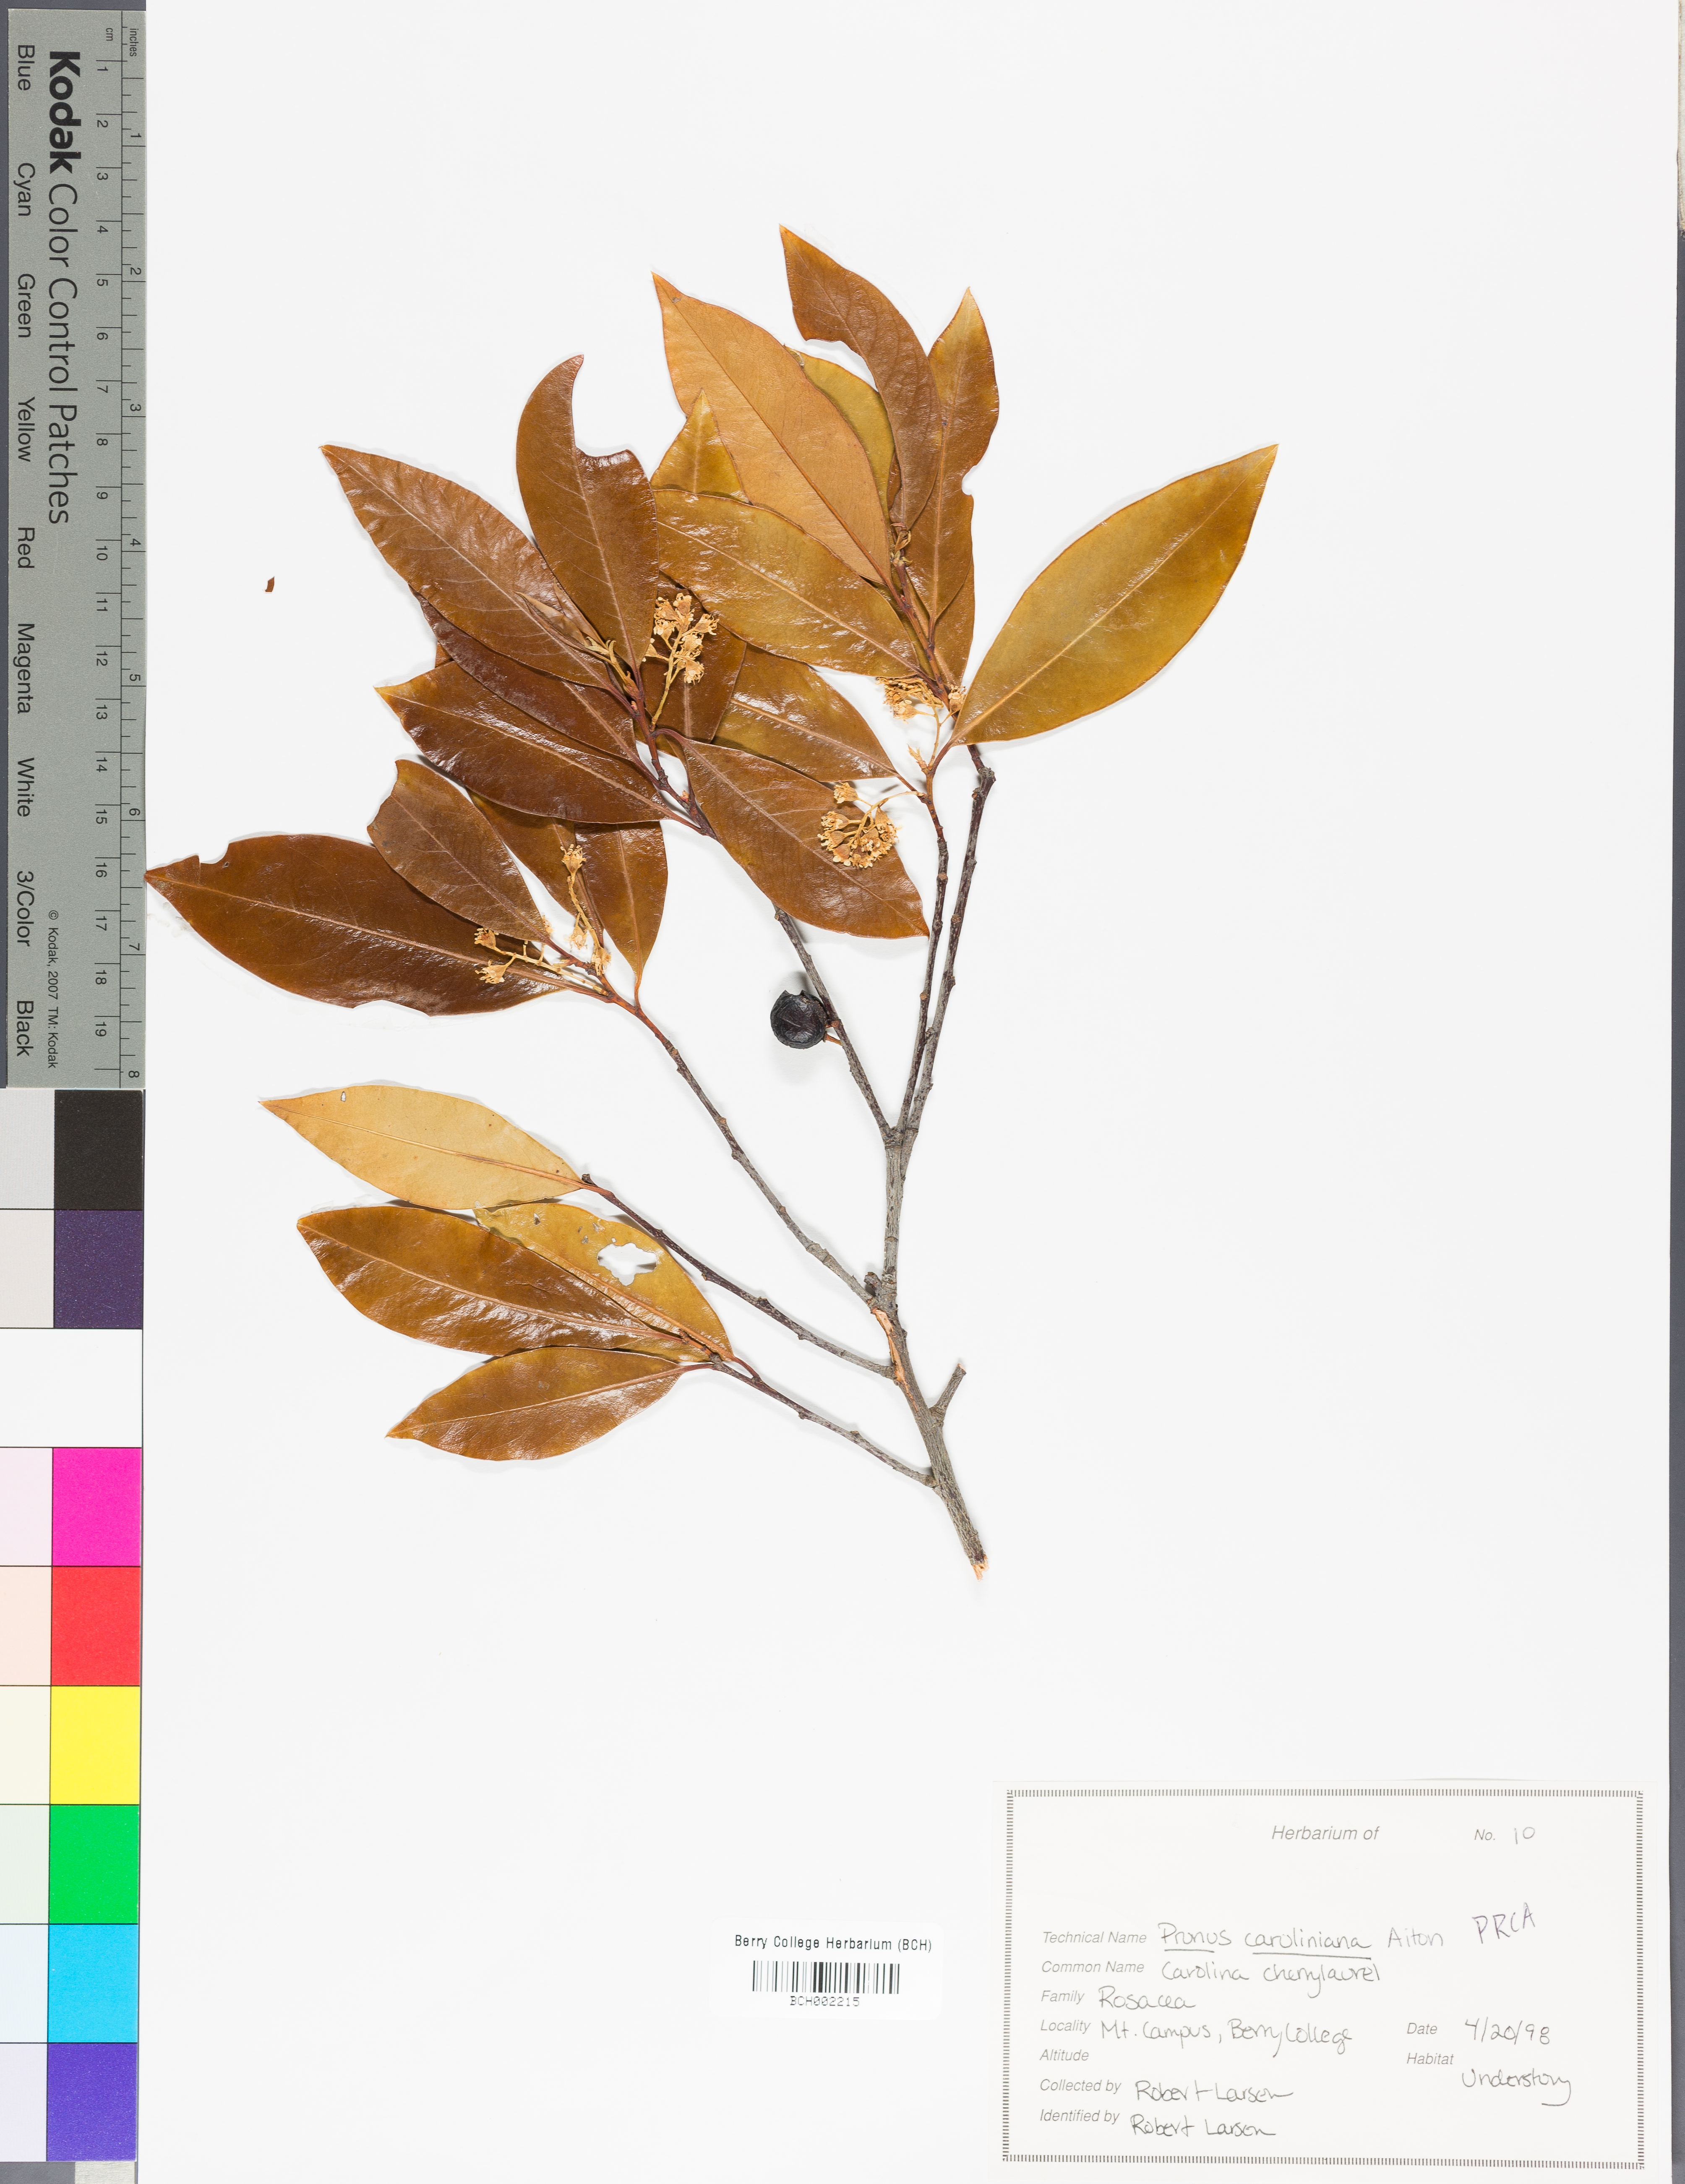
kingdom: Plantae
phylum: Tracheophyta
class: Magnoliopsida
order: Rosales
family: Rosaceae
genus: Prunus
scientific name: Prunus caroliniana
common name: Carolina laurel cherry
